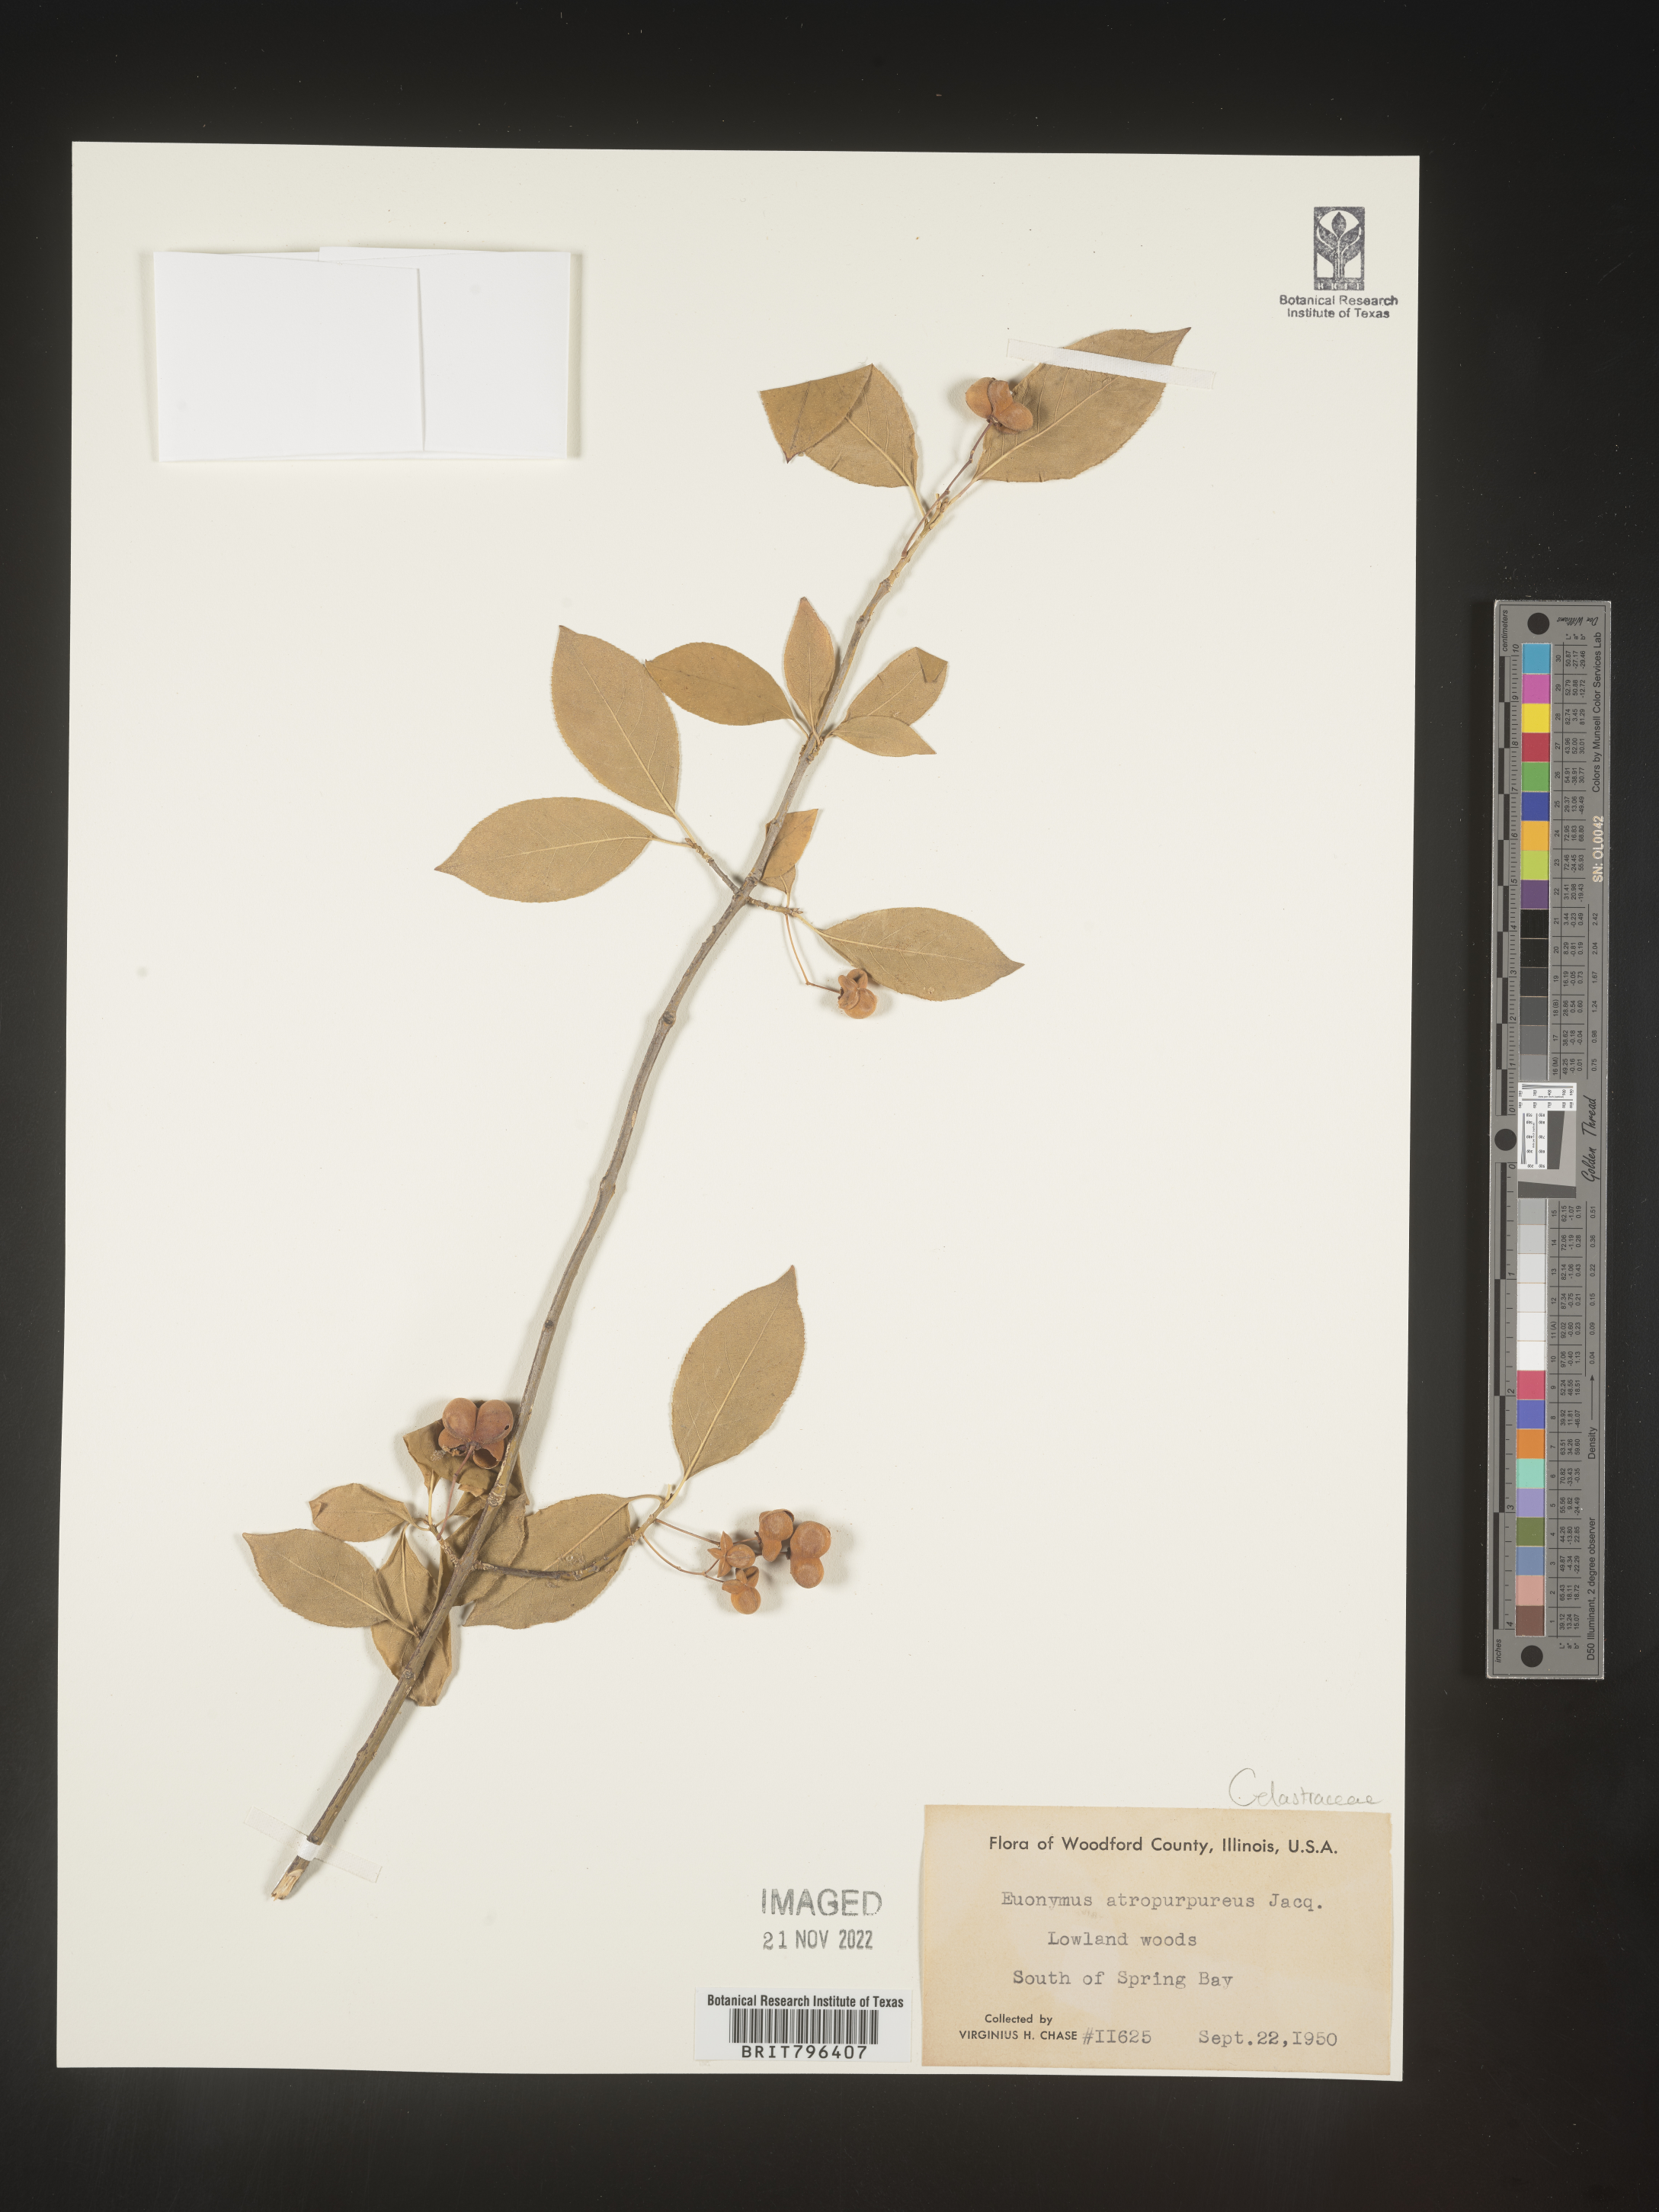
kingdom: Plantae
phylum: Tracheophyta
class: Magnoliopsida
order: Celastrales
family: Celastraceae
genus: Euonymus
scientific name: Euonymus atropurpureus
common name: Eastern wahoo
